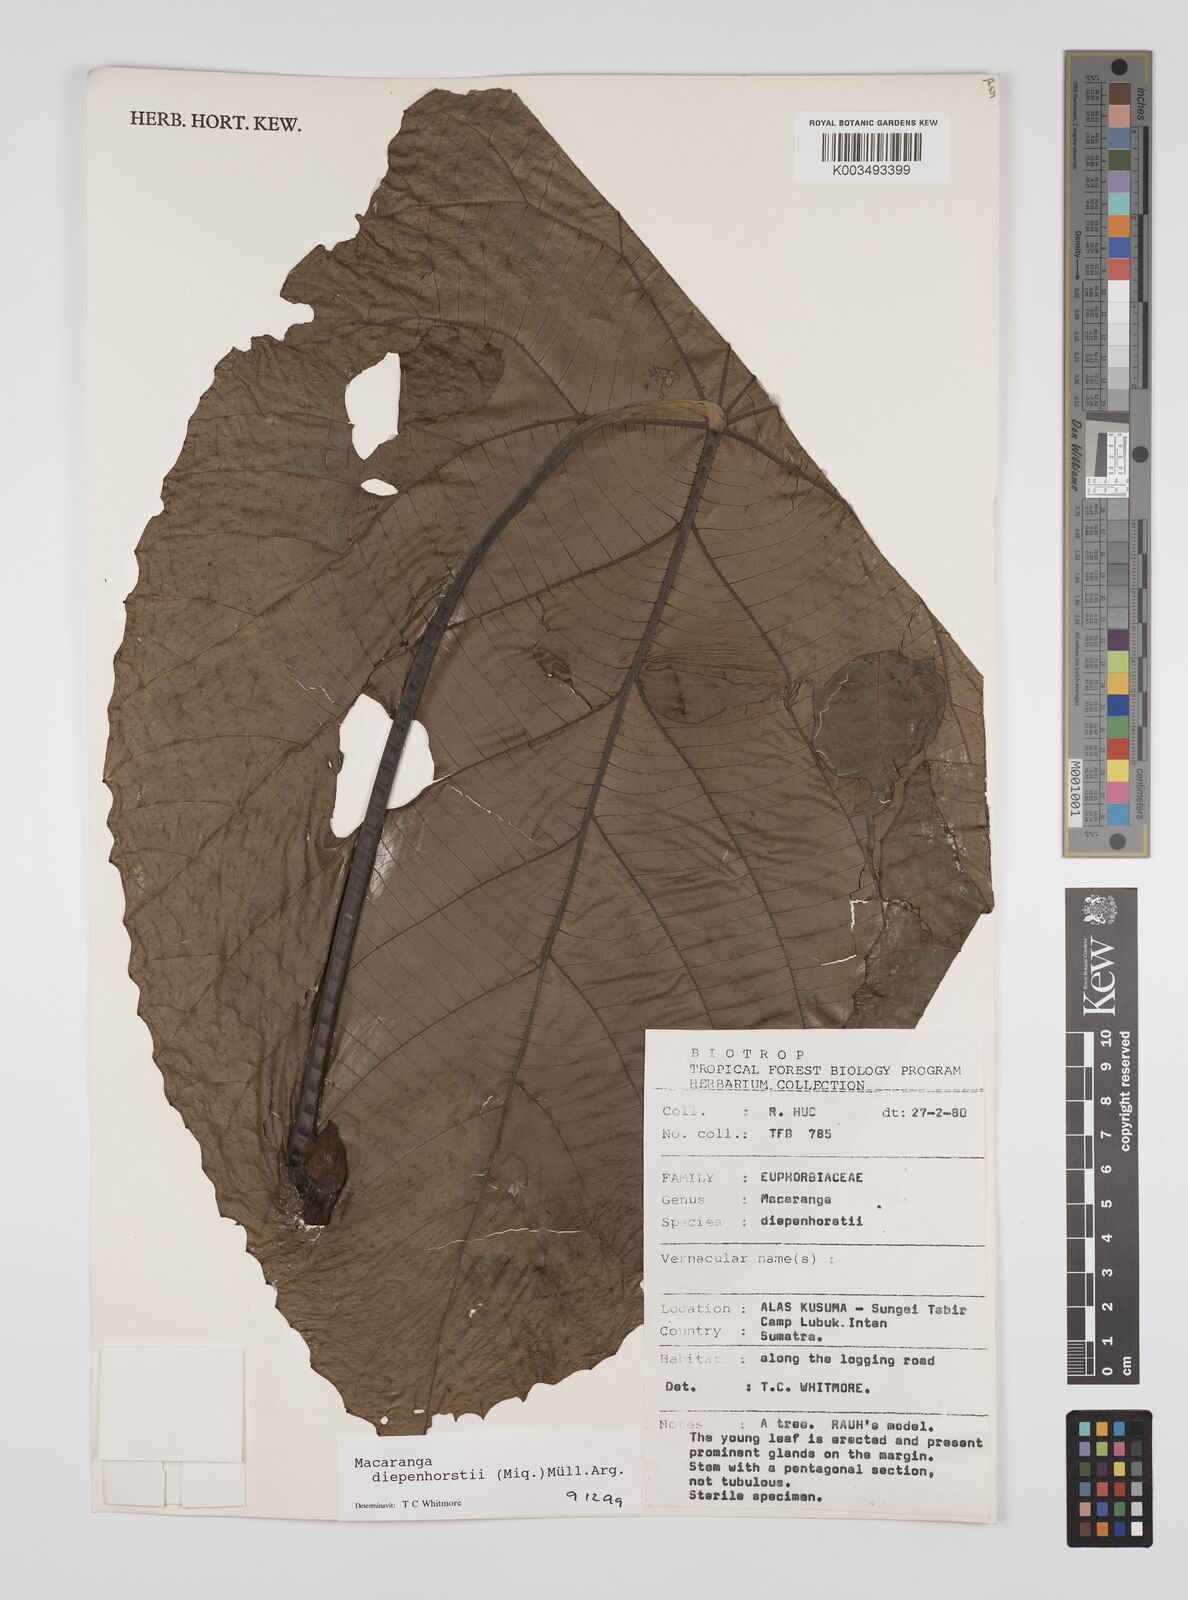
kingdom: Plantae
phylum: Tracheophyta
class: Magnoliopsida
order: Malpighiales
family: Euphorbiaceae
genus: Macaranga
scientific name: Macaranga diepenhorstii
